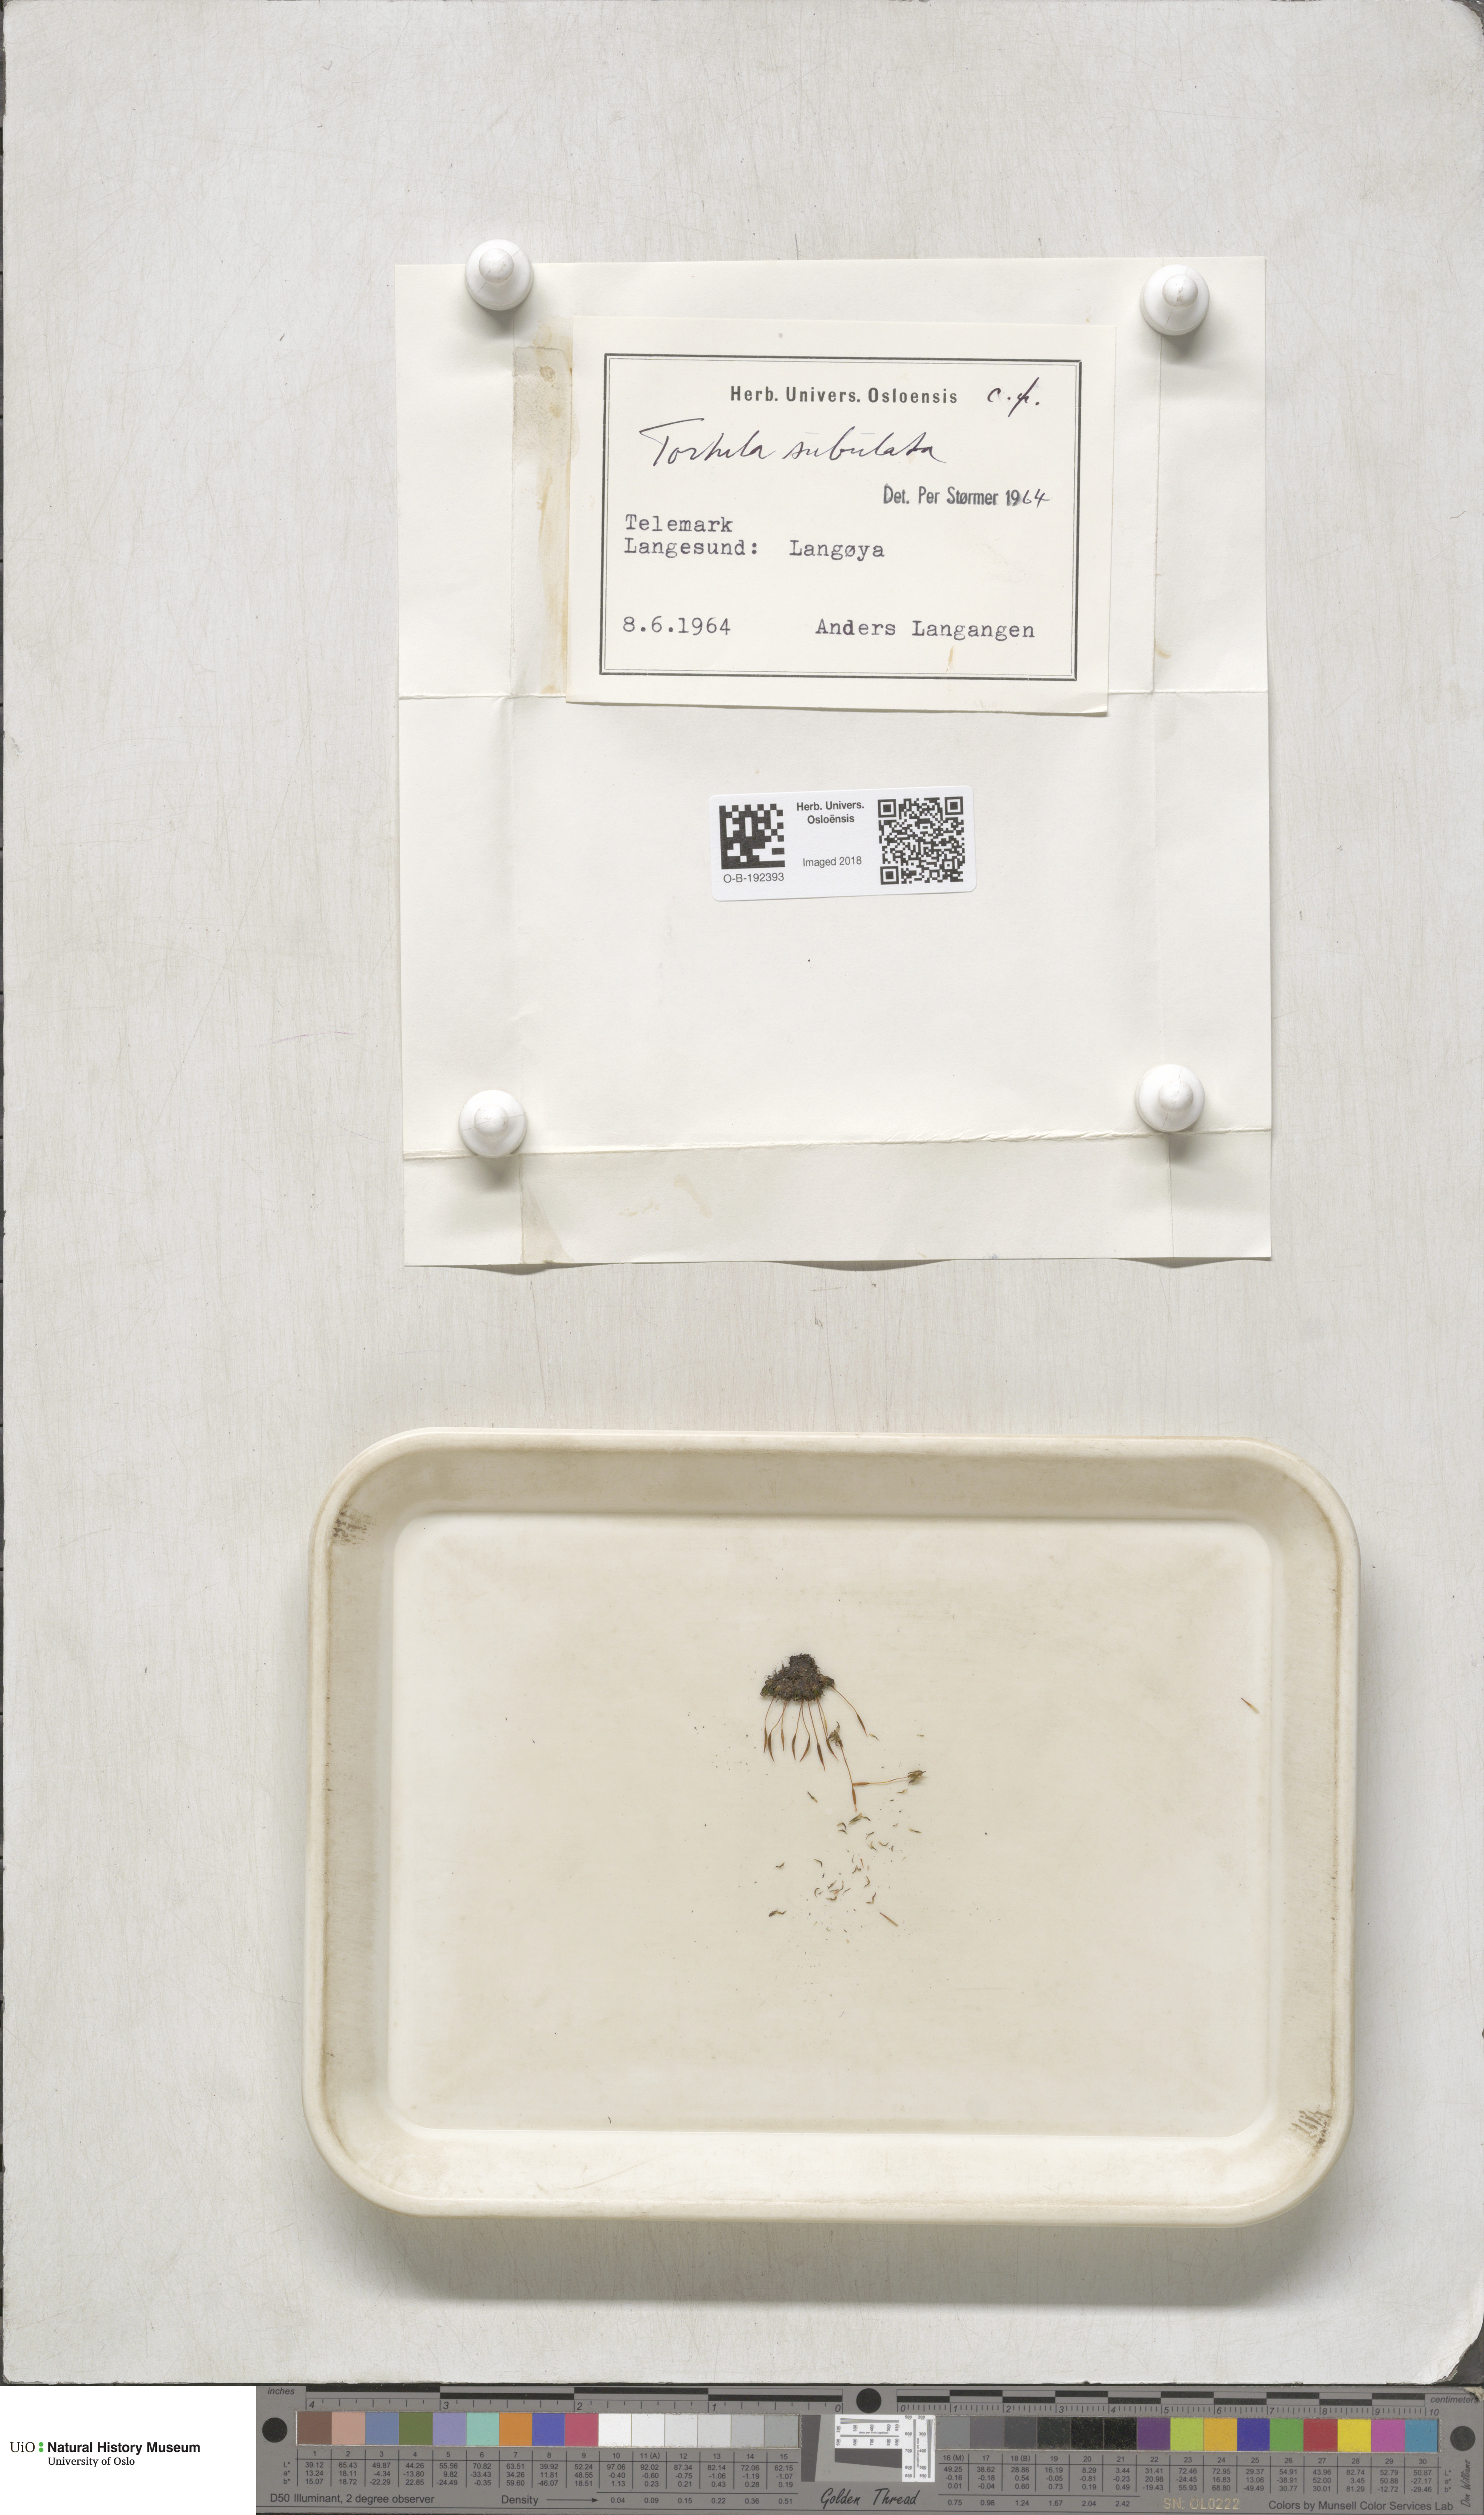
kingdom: Plantae
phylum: Bryophyta
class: Bryopsida
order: Pottiales
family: Pottiaceae
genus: Tortula
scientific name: Tortula subulata
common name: Upright screw-moss
